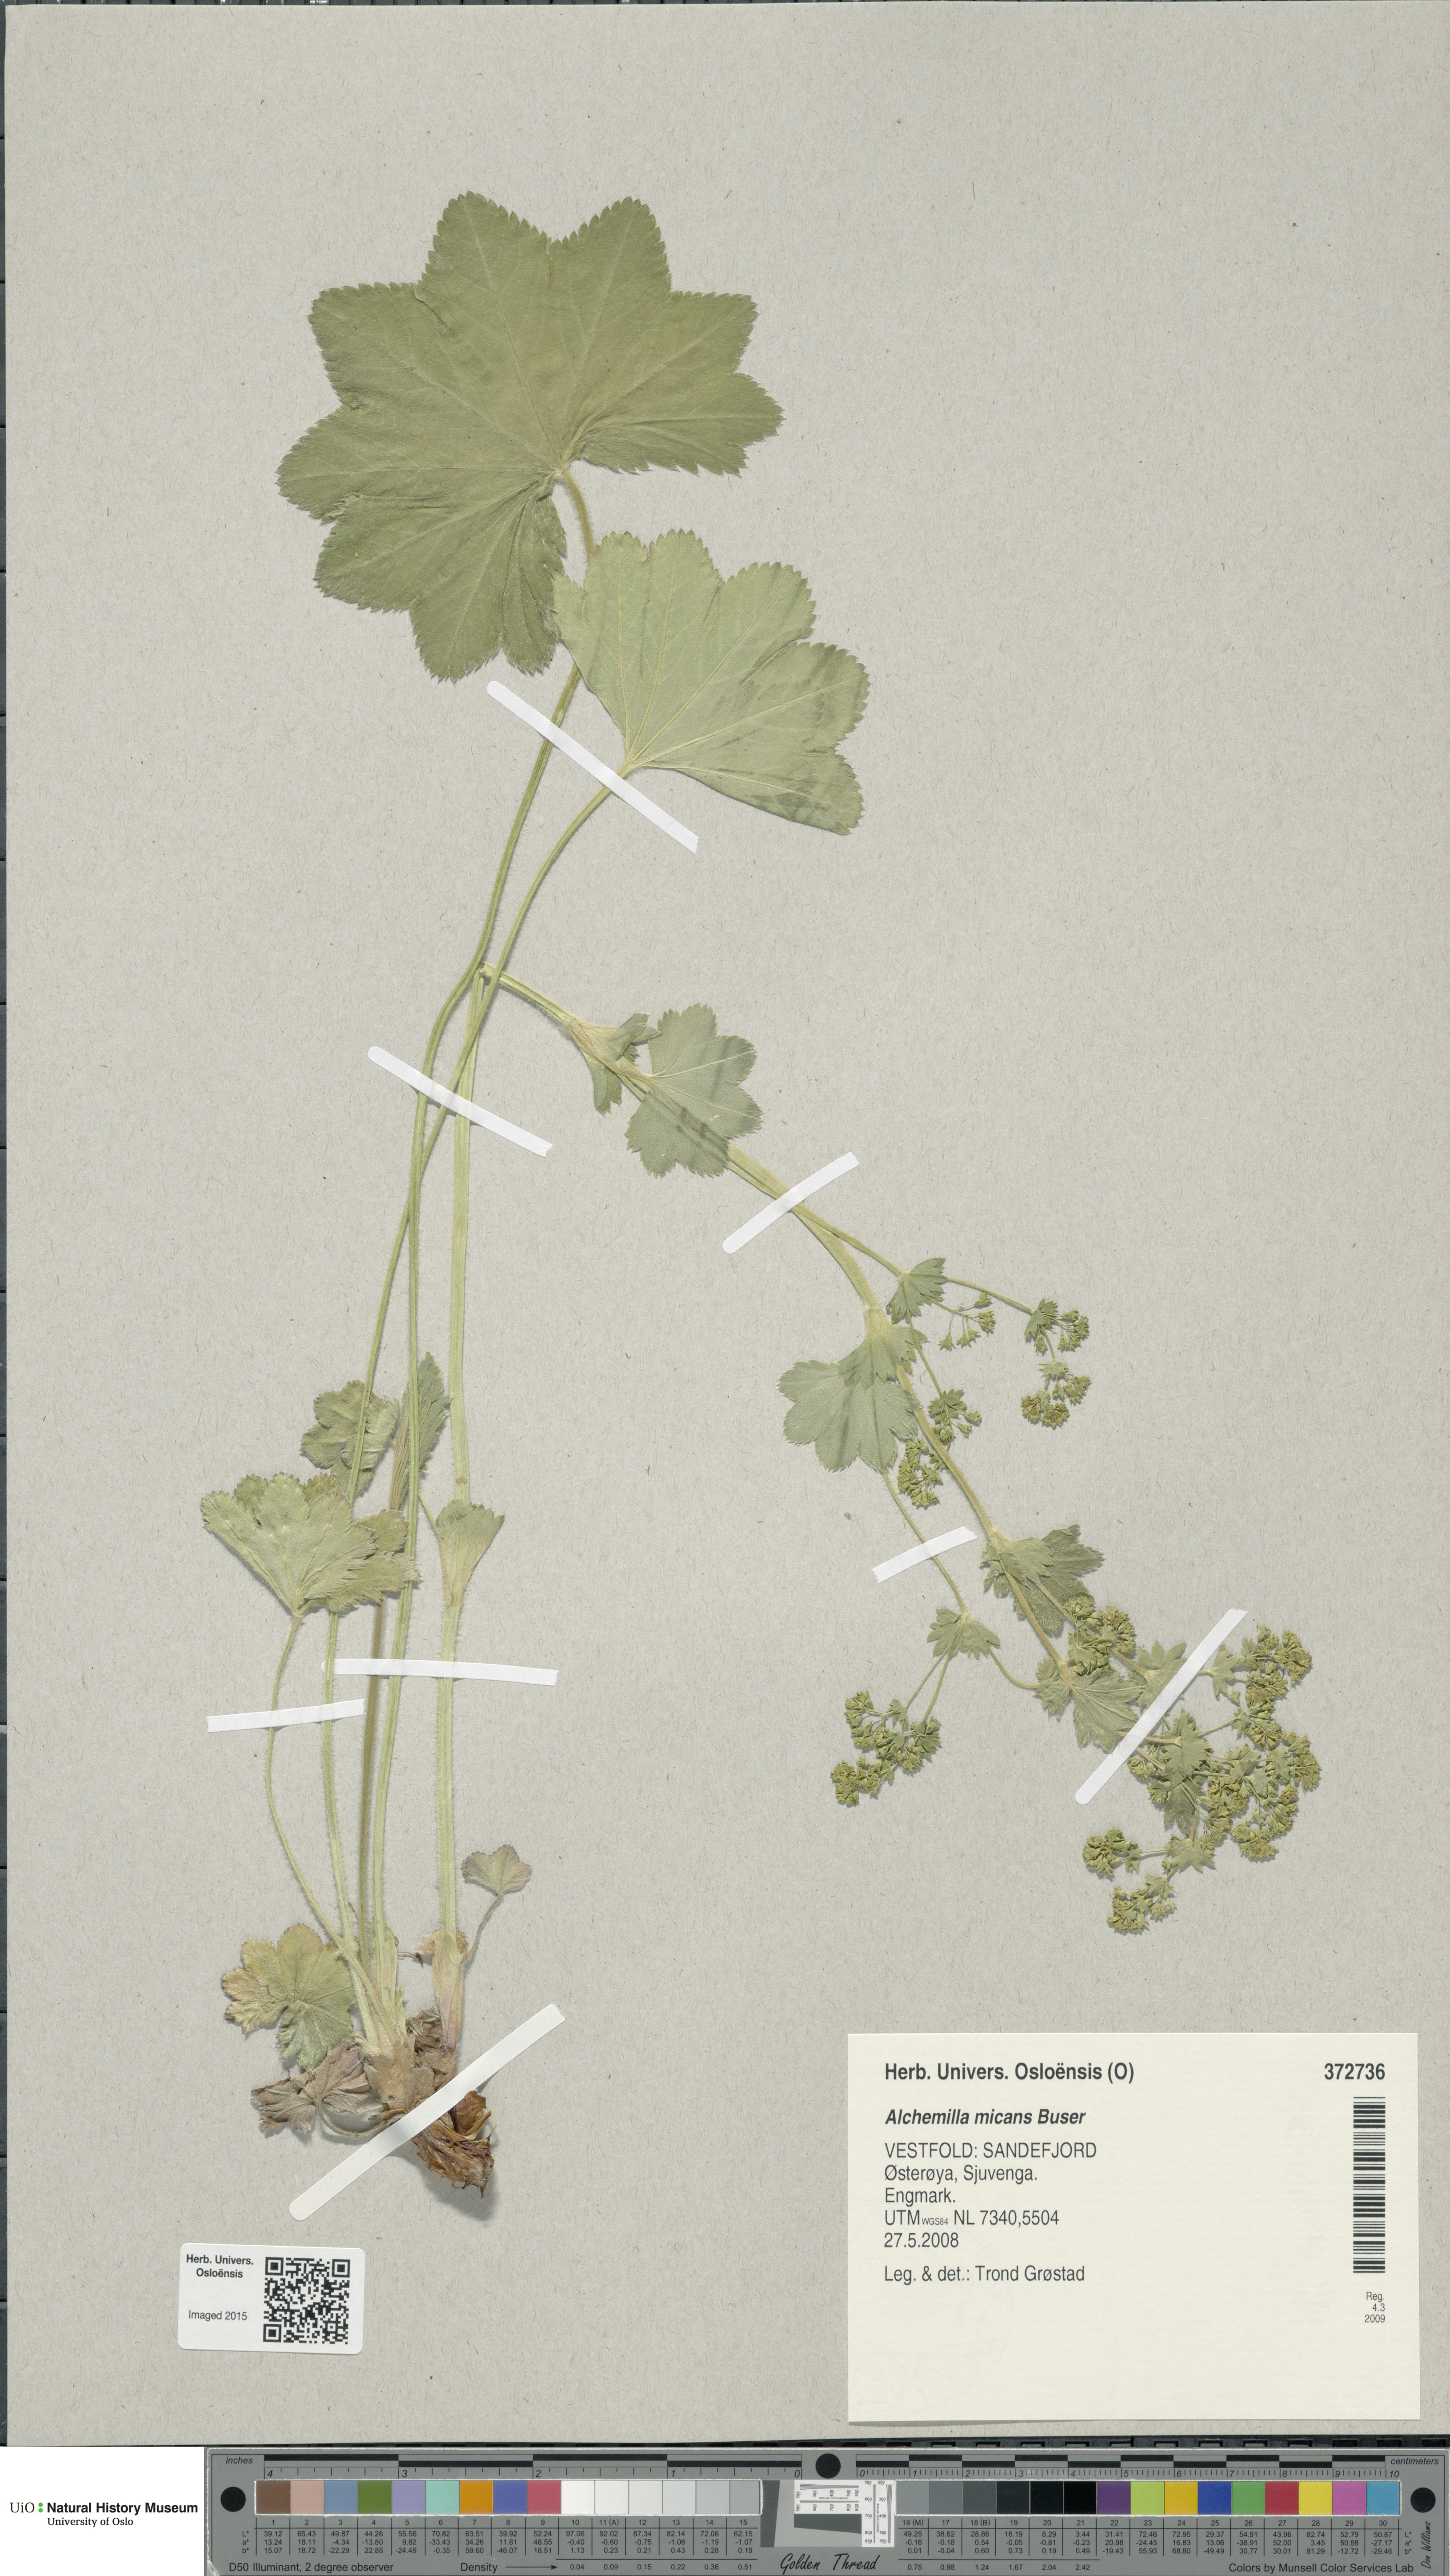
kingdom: Plantae
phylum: Tracheophyta
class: Magnoliopsida
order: Rosales
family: Rosaceae
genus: Alchemilla
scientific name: Alchemilla micans
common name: Gleaming lady's mantle
